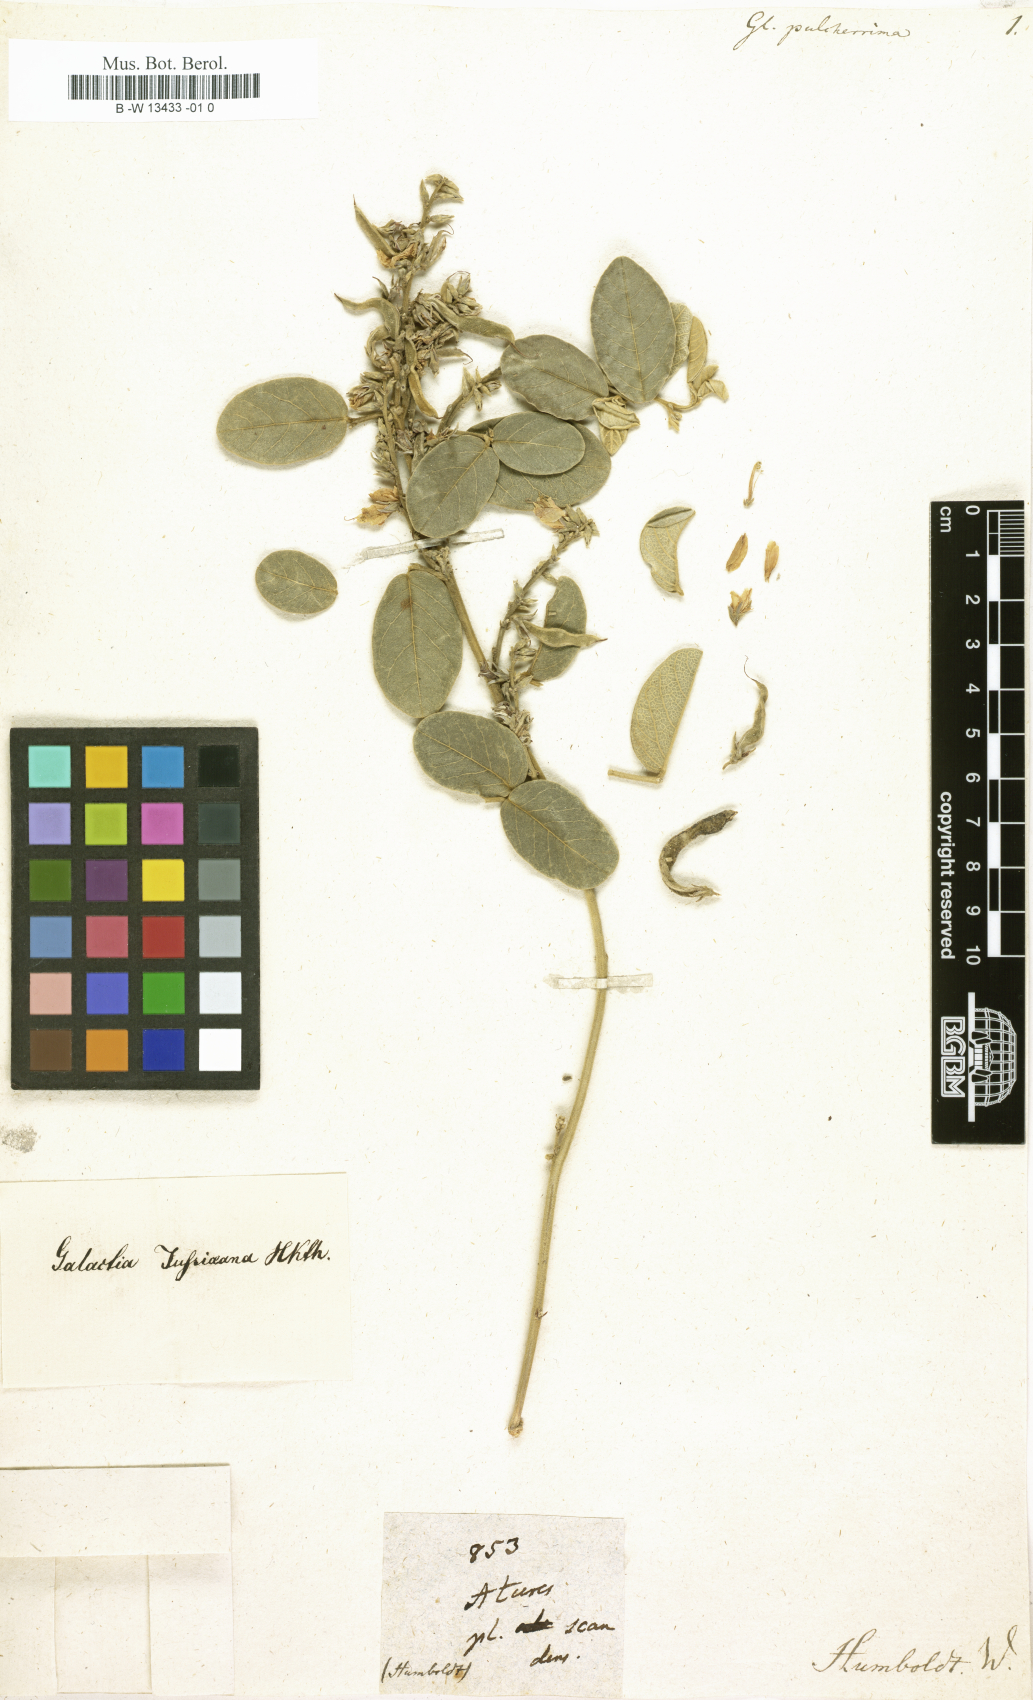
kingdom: Plantae
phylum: Tracheophyta
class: Magnoliopsida
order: Fabales
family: Fabaceae
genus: Robinia
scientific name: Robinia aturensis
